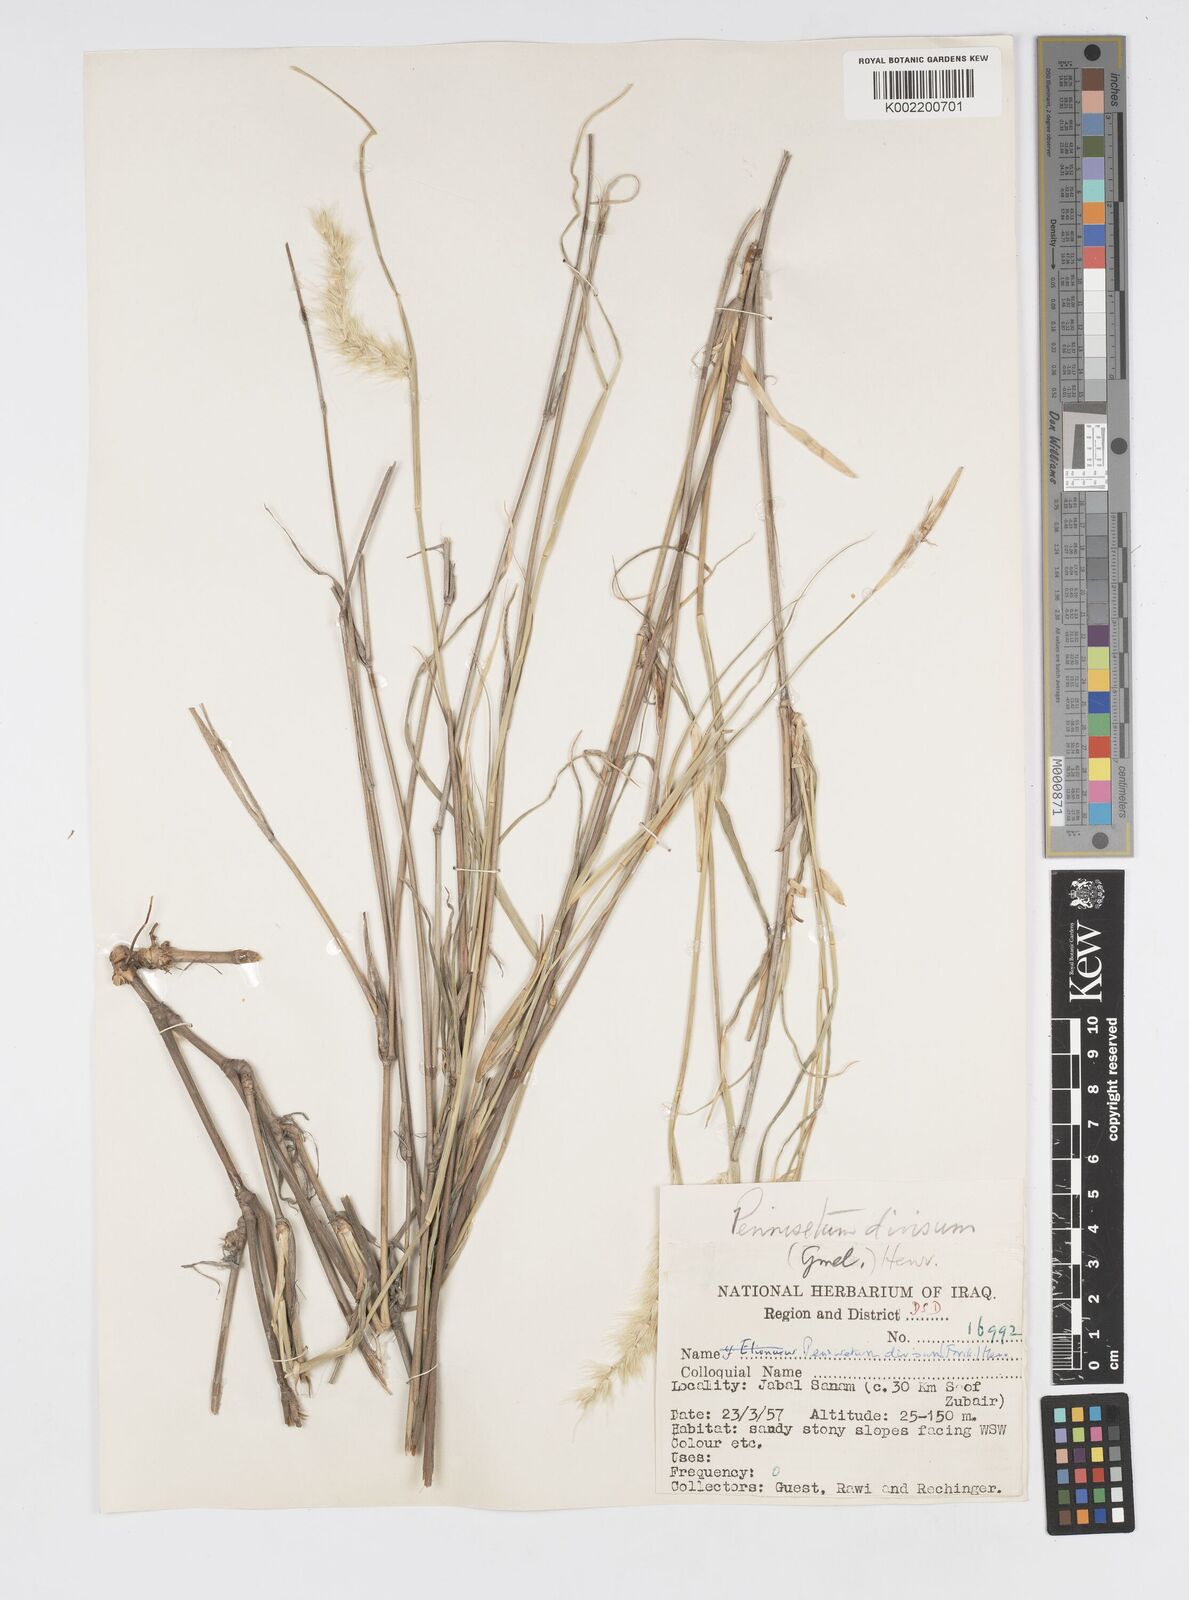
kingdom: Plantae
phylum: Tracheophyta
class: Liliopsida
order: Poales
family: Poaceae
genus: Cenchrus
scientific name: Cenchrus divisus
